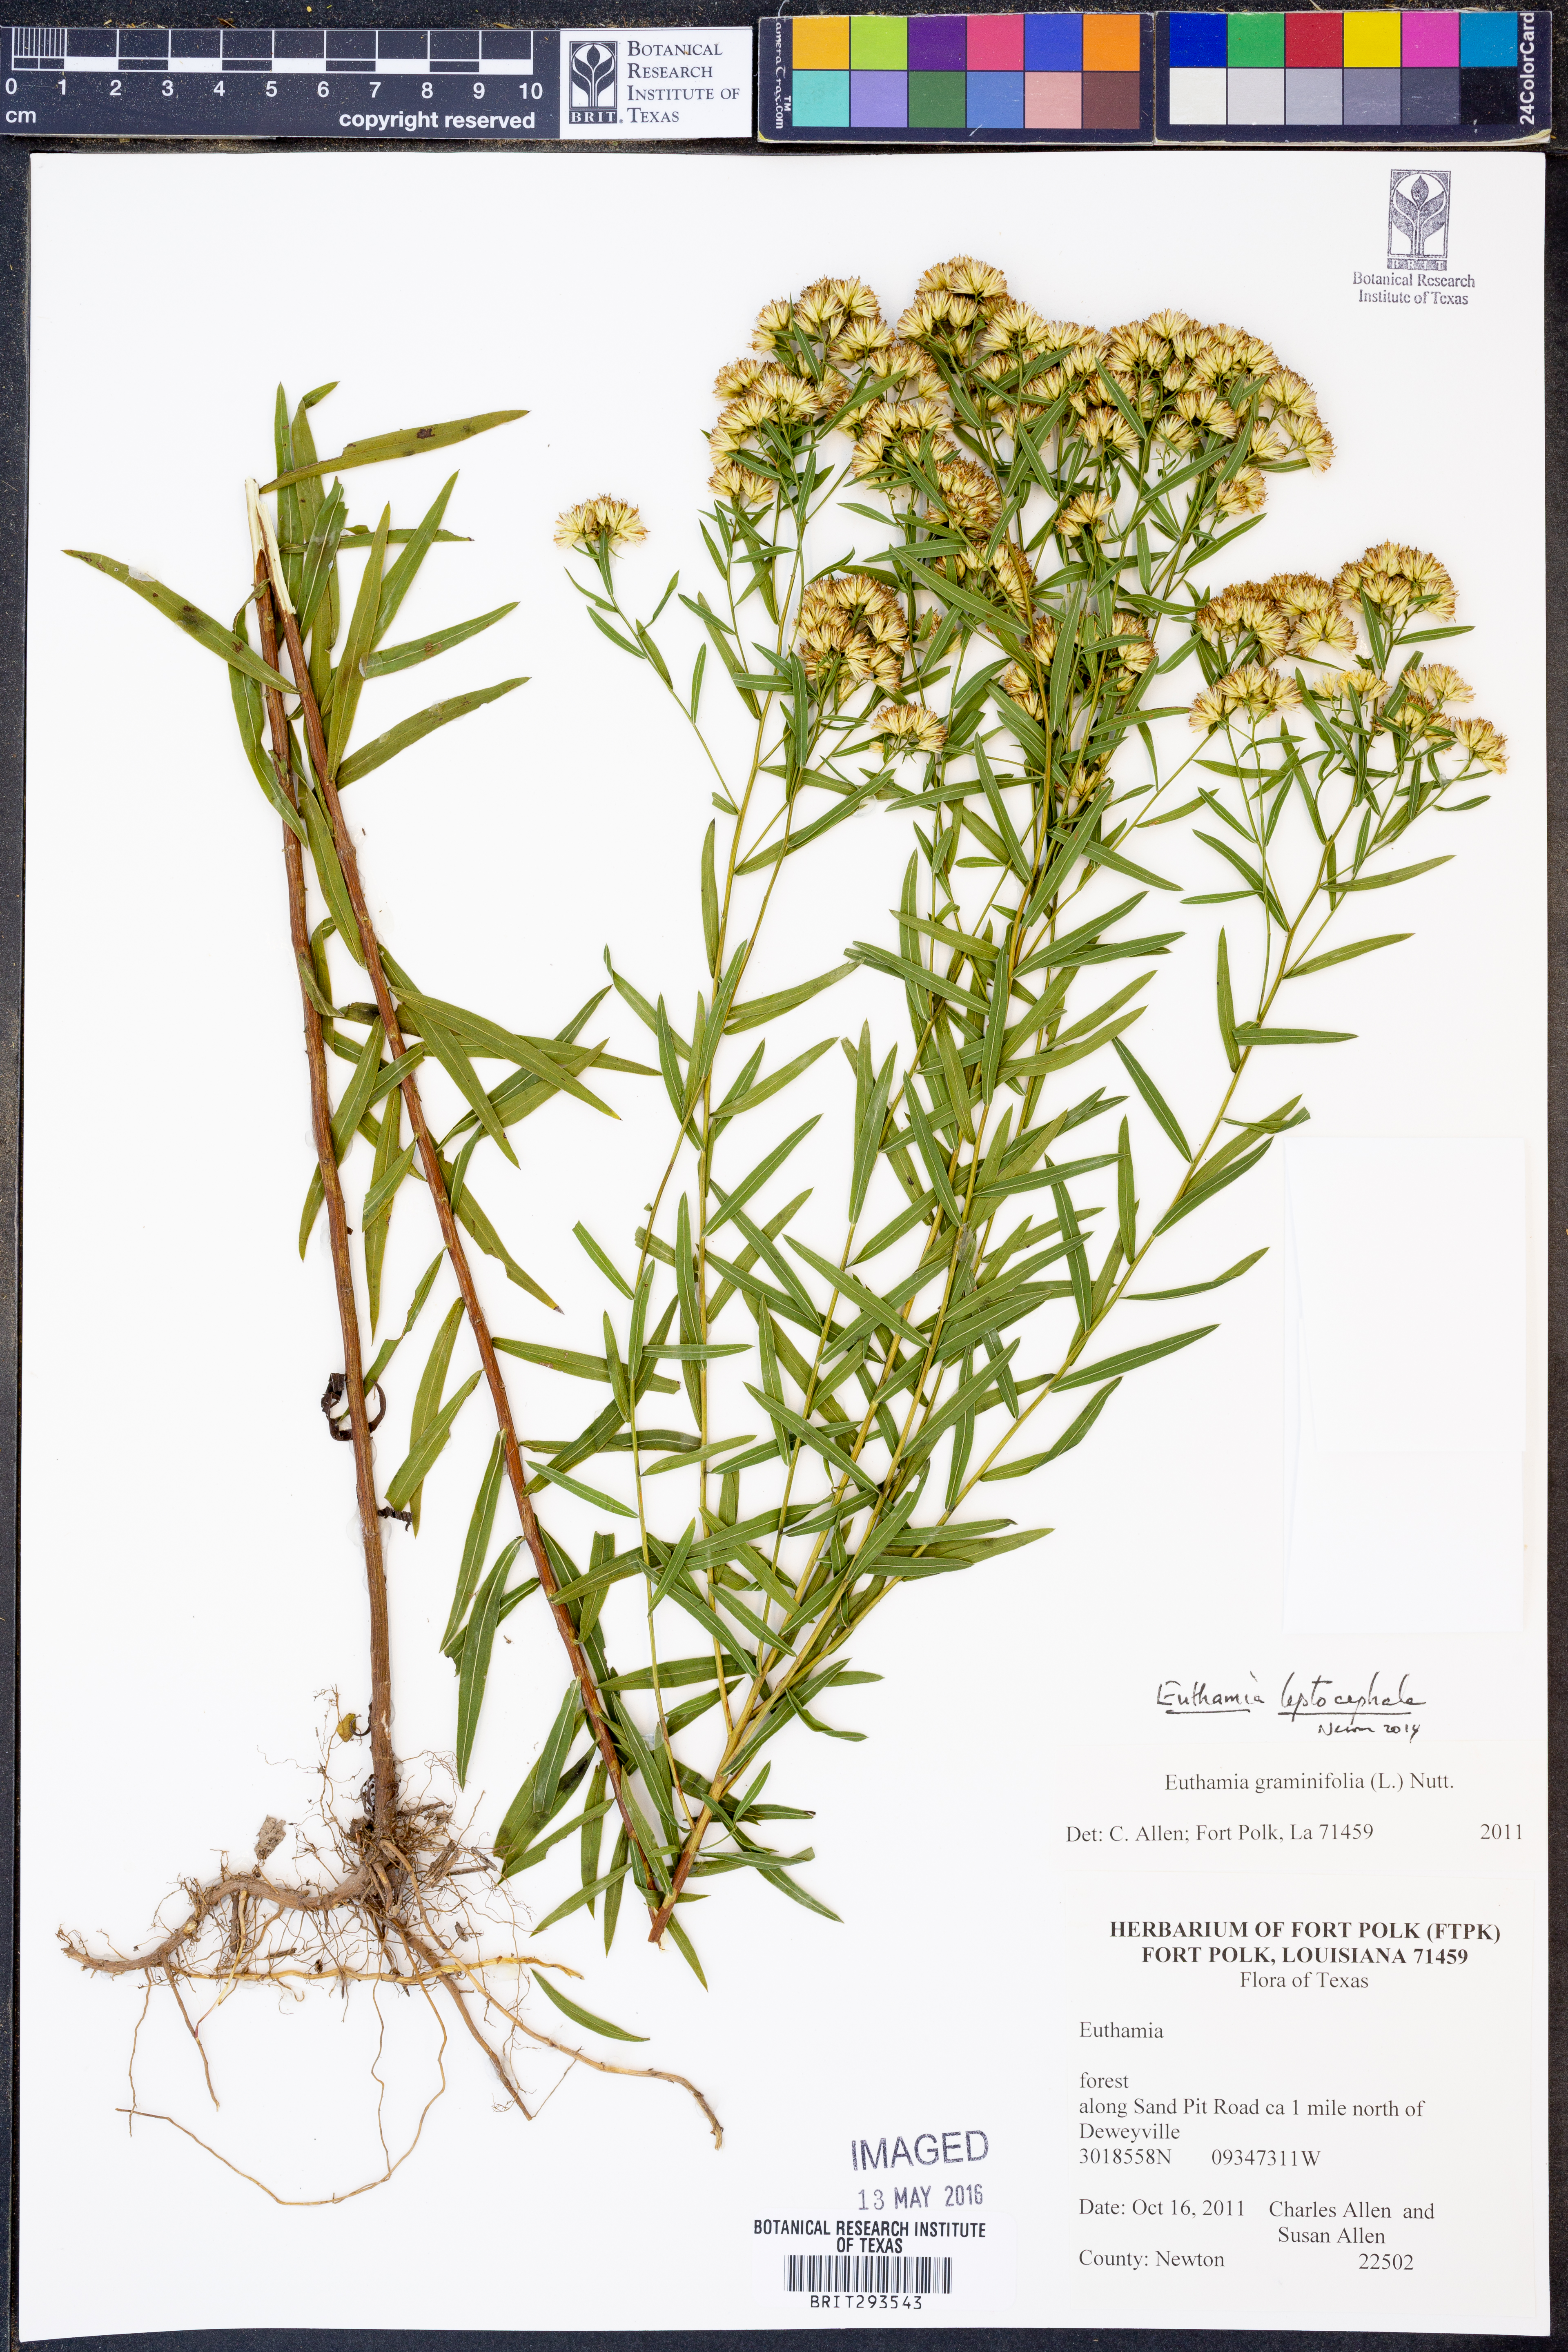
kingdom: Plantae
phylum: Tracheophyta
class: Magnoliopsida
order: Asterales
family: Asteraceae
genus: Euthamia
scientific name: Euthamia leptocephala
